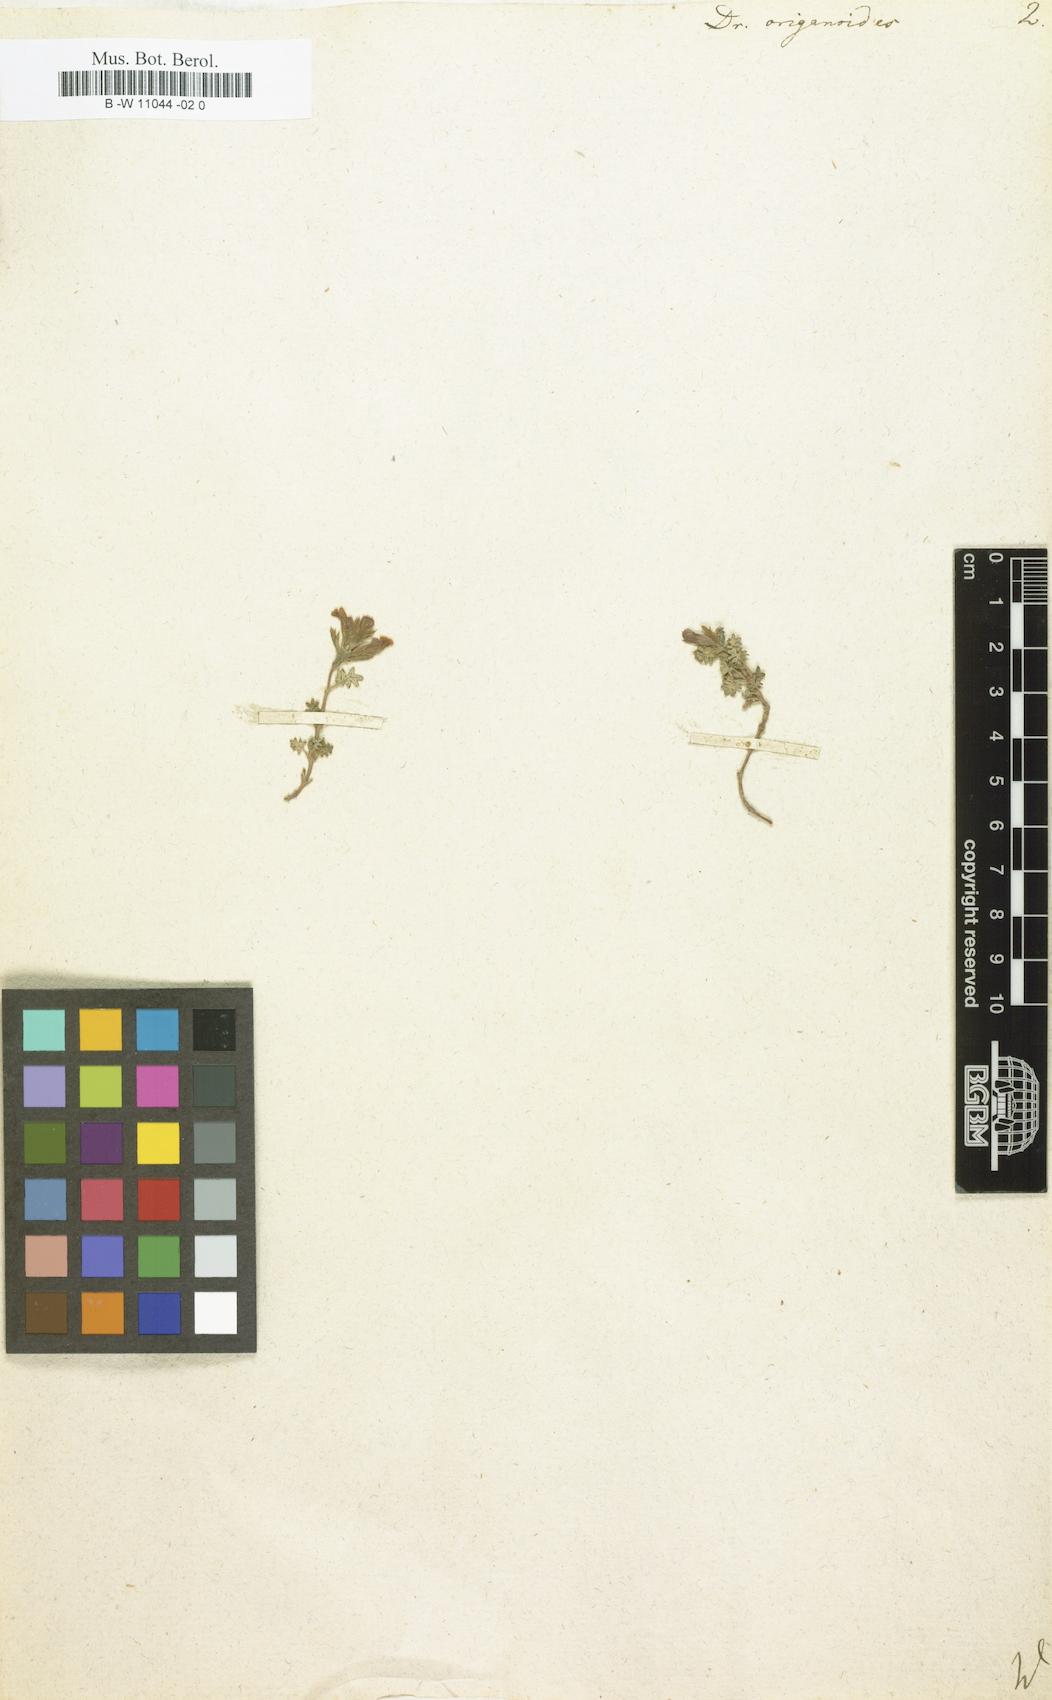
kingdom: Plantae
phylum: Tracheophyta
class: Magnoliopsida
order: Lamiales
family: Lamiaceae
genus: Dracocephalum
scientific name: Dracocephalum origanoides
